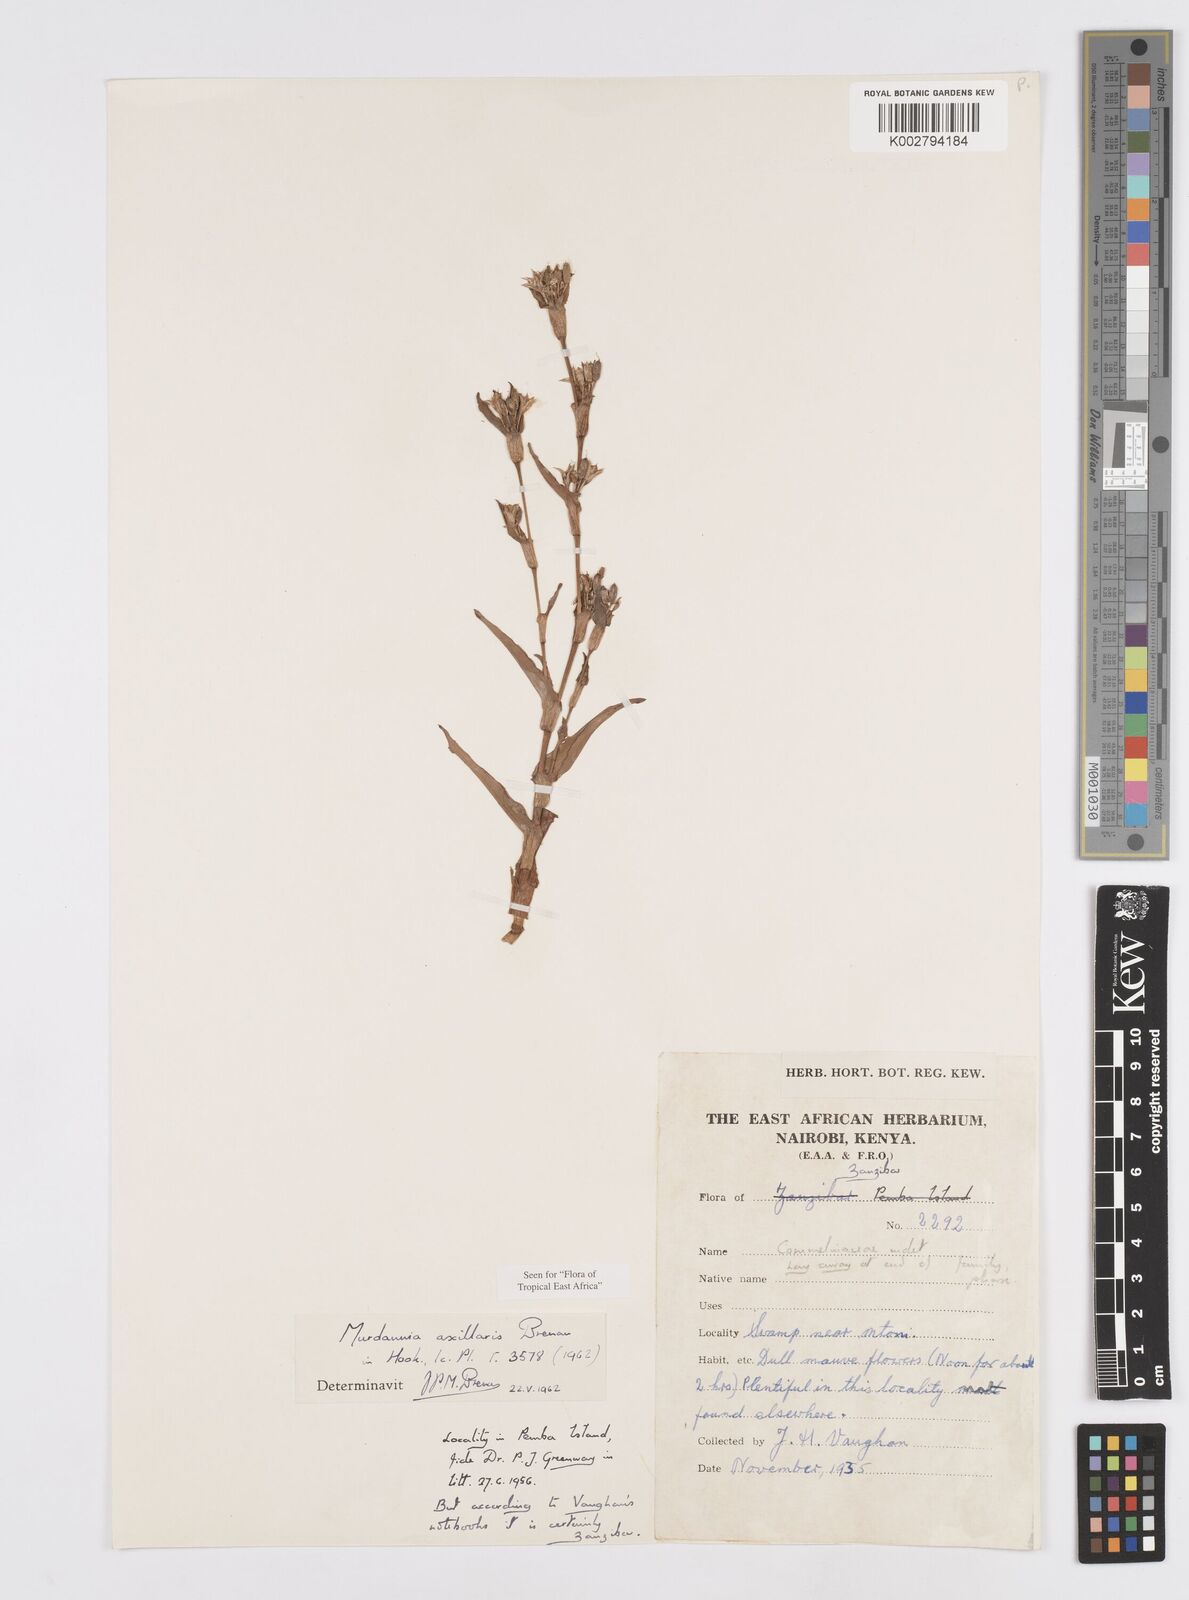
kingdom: Plantae
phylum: Tracheophyta
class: Liliopsida
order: Commelinales
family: Commelinaceae
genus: Murdannia
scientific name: Murdannia axillaris
